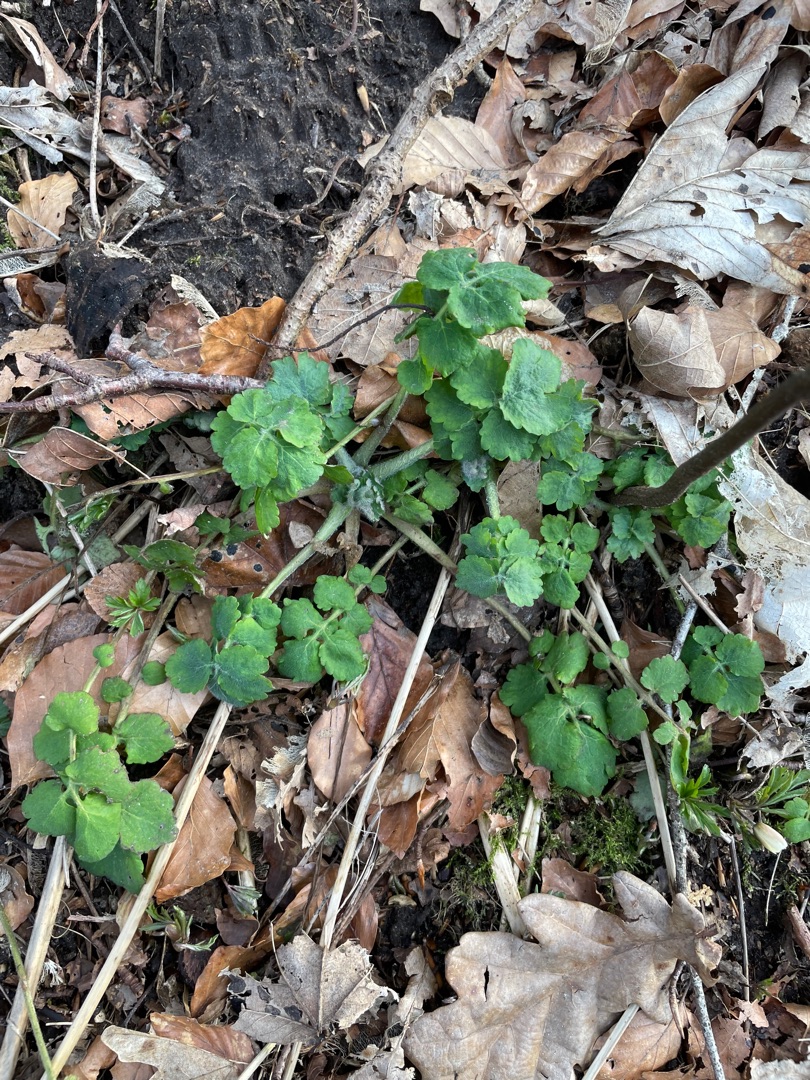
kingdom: Plantae
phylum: Tracheophyta
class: Magnoliopsida
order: Ranunculales
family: Papaveraceae
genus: Chelidonium
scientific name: Chelidonium majus
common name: Svaleurt
